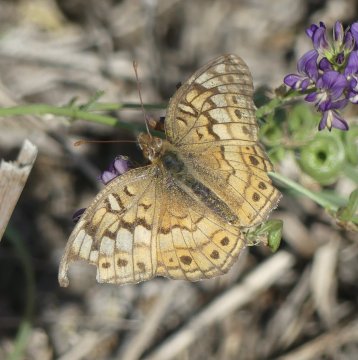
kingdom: Animalia
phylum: Arthropoda
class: Insecta
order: Lepidoptera
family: Nymphalidae
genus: Euptoieta
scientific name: Euptoieta claudia
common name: Variegated Fritillary
